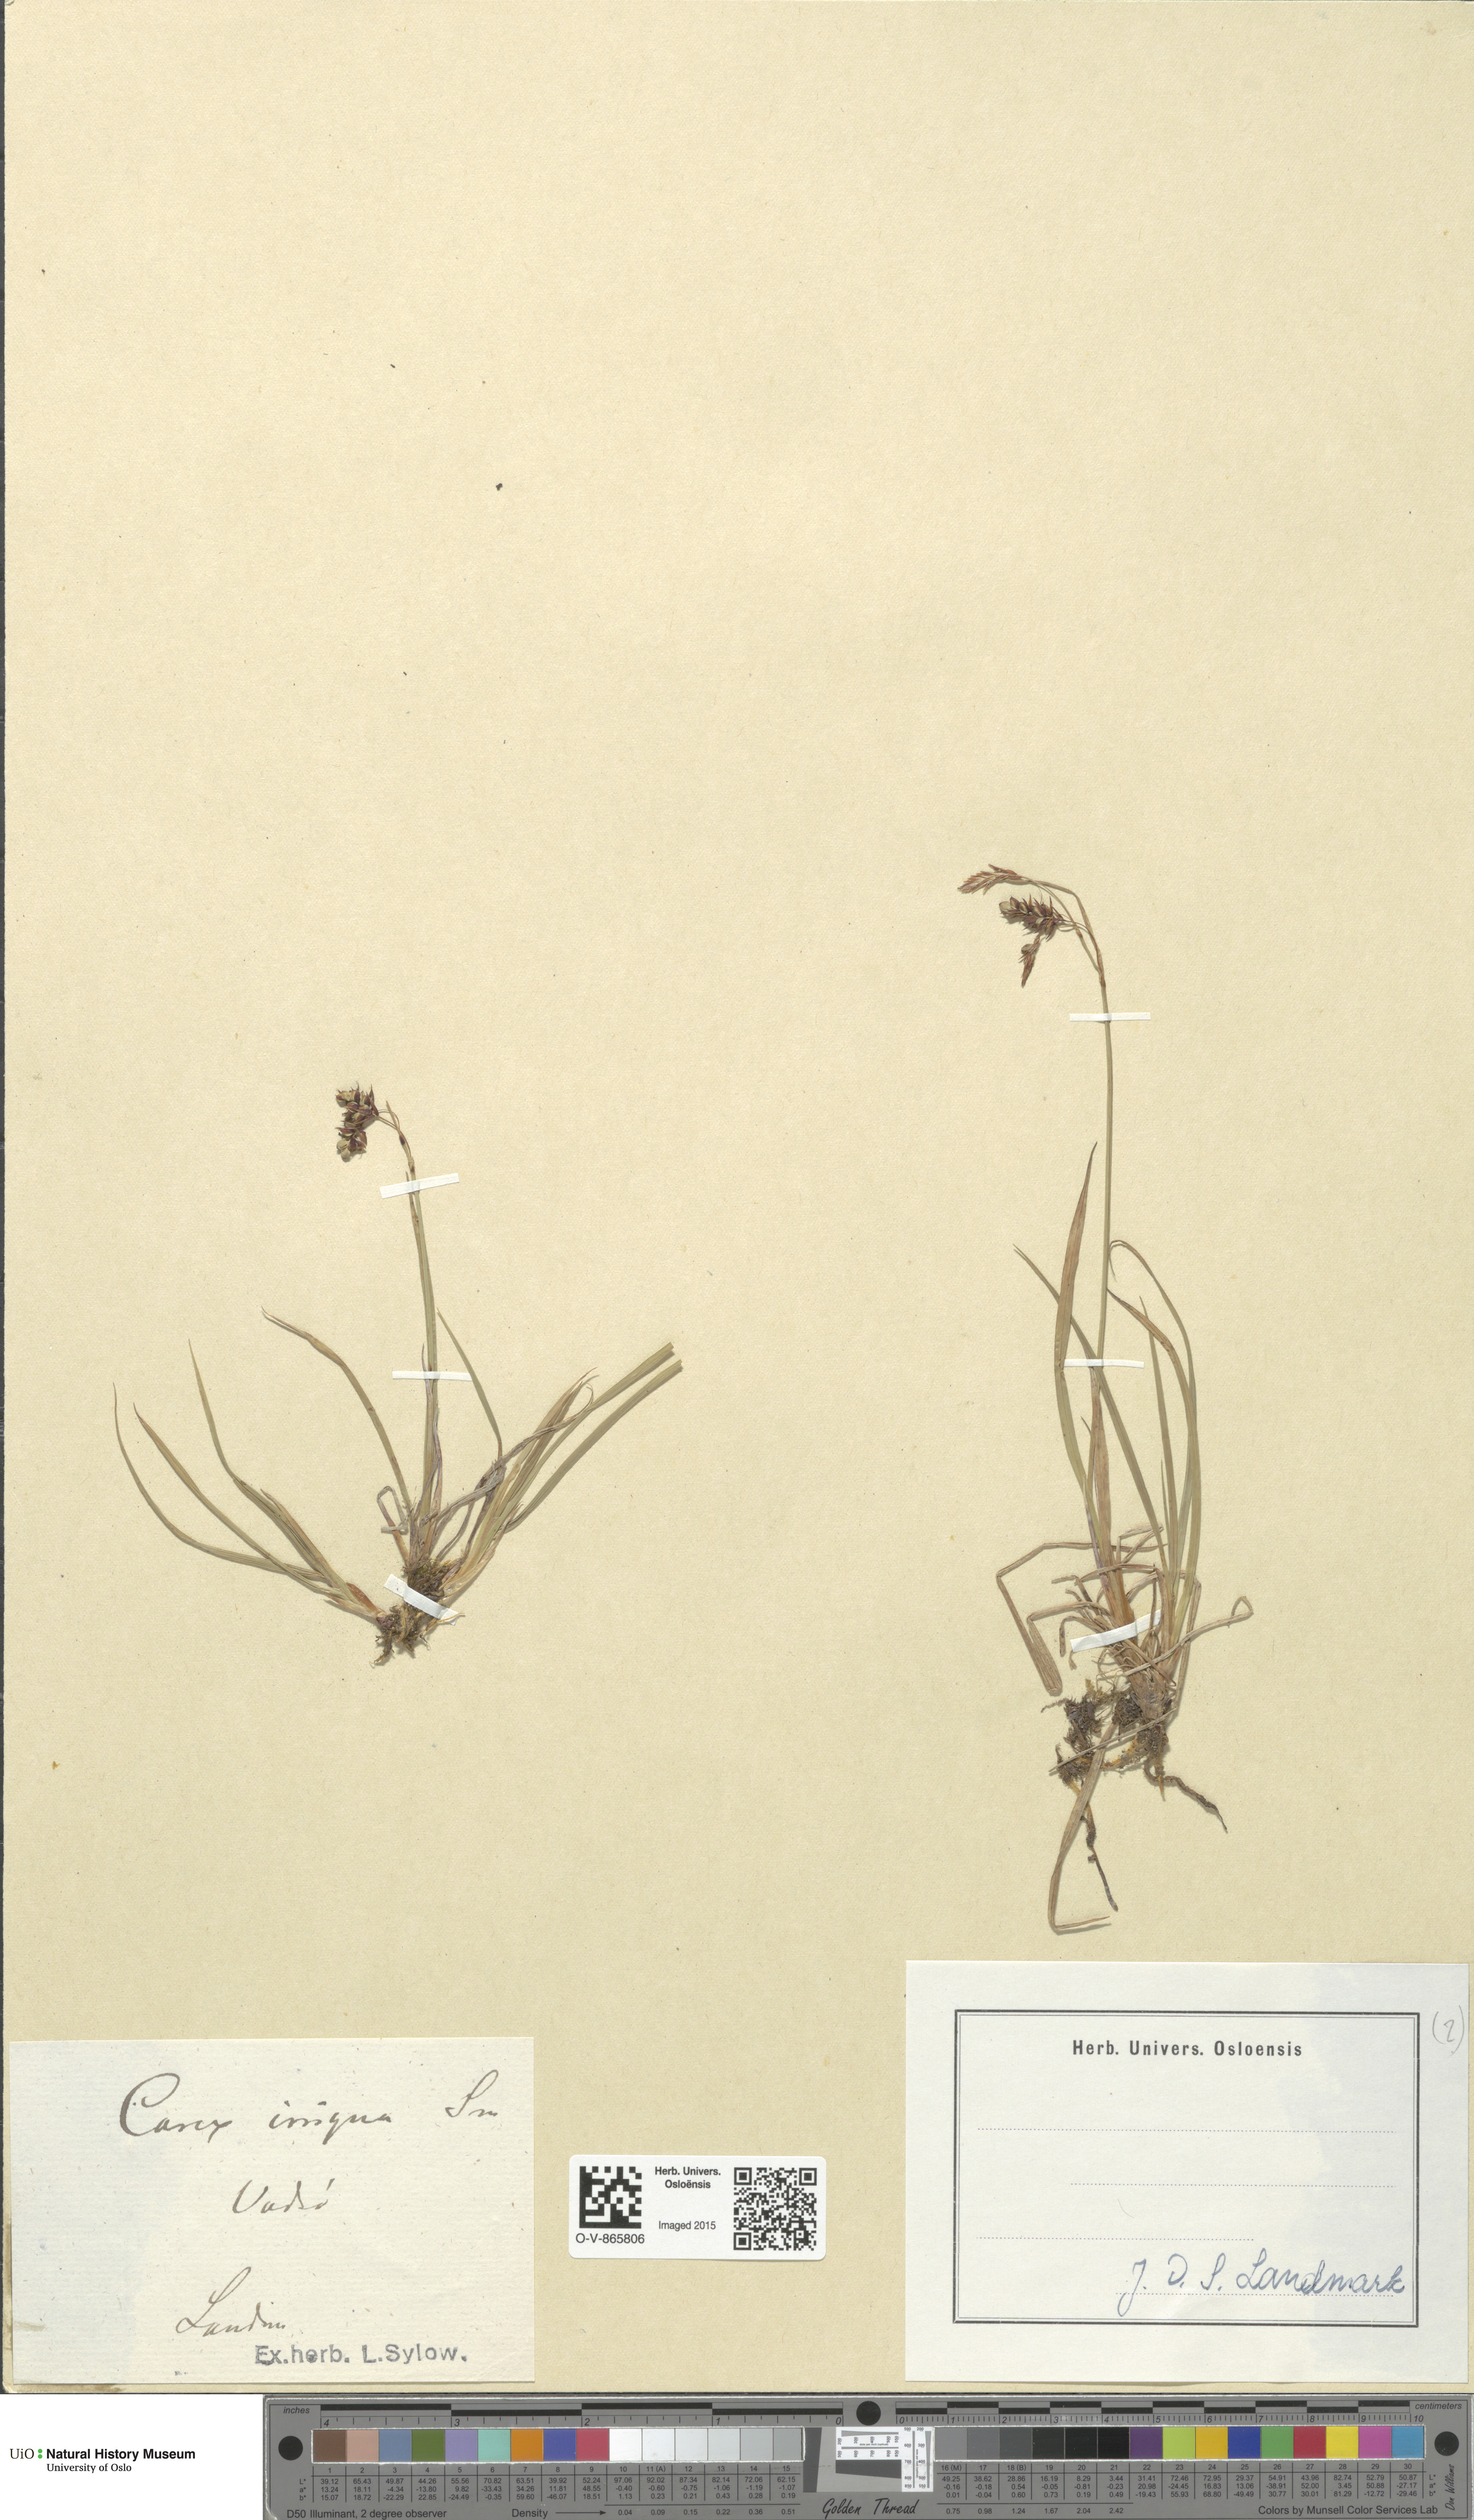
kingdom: Plantae
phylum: Tracheophyta
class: Liliopsida
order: Poales
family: Cyperaceae
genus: Carex
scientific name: Carex magellanica
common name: Bog sedge
